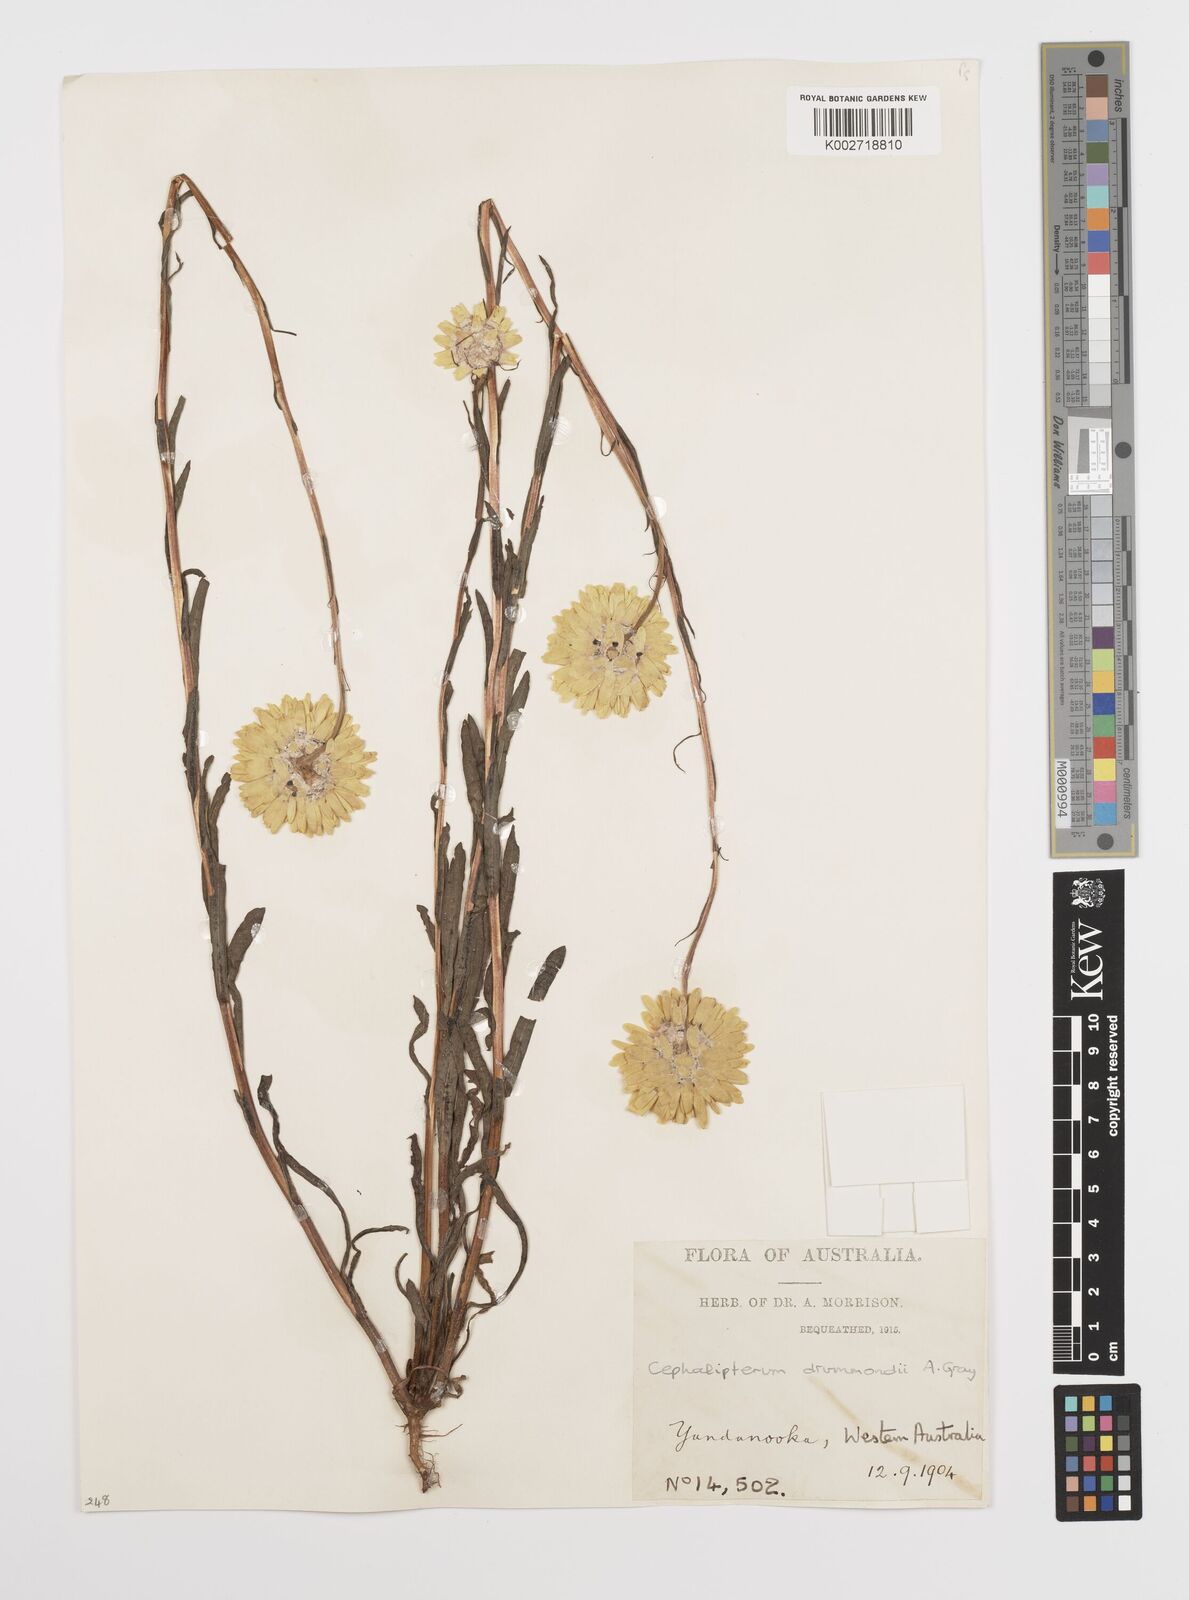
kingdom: Plantae
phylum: Tracheophyta
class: Magnoliopsida
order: Asterales
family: Asteraceae
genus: Cephalipterum
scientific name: Cephalipterum drummondii
